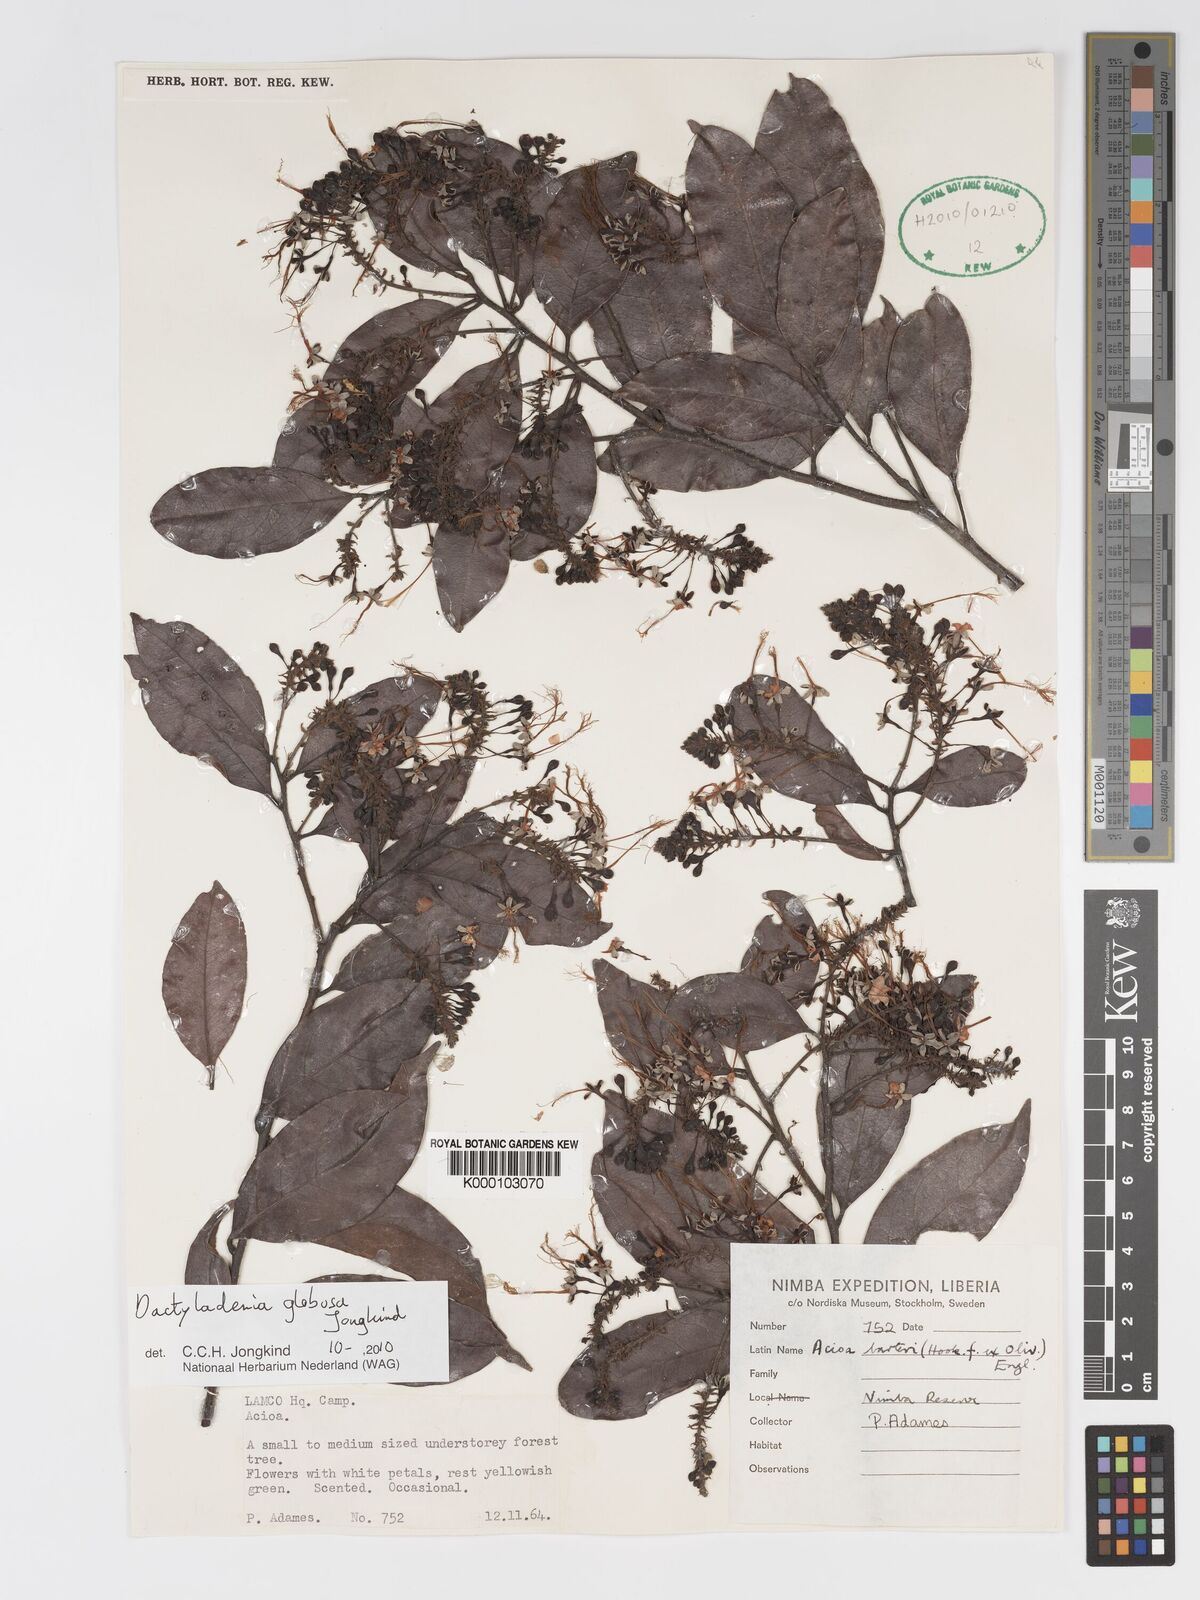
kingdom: Plantae
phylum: Tracheophyta
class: Magnoliopsida
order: Malpighiales
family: Chrysobalanaceae
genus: Dactyladenia
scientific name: Dactyladenia globosa
